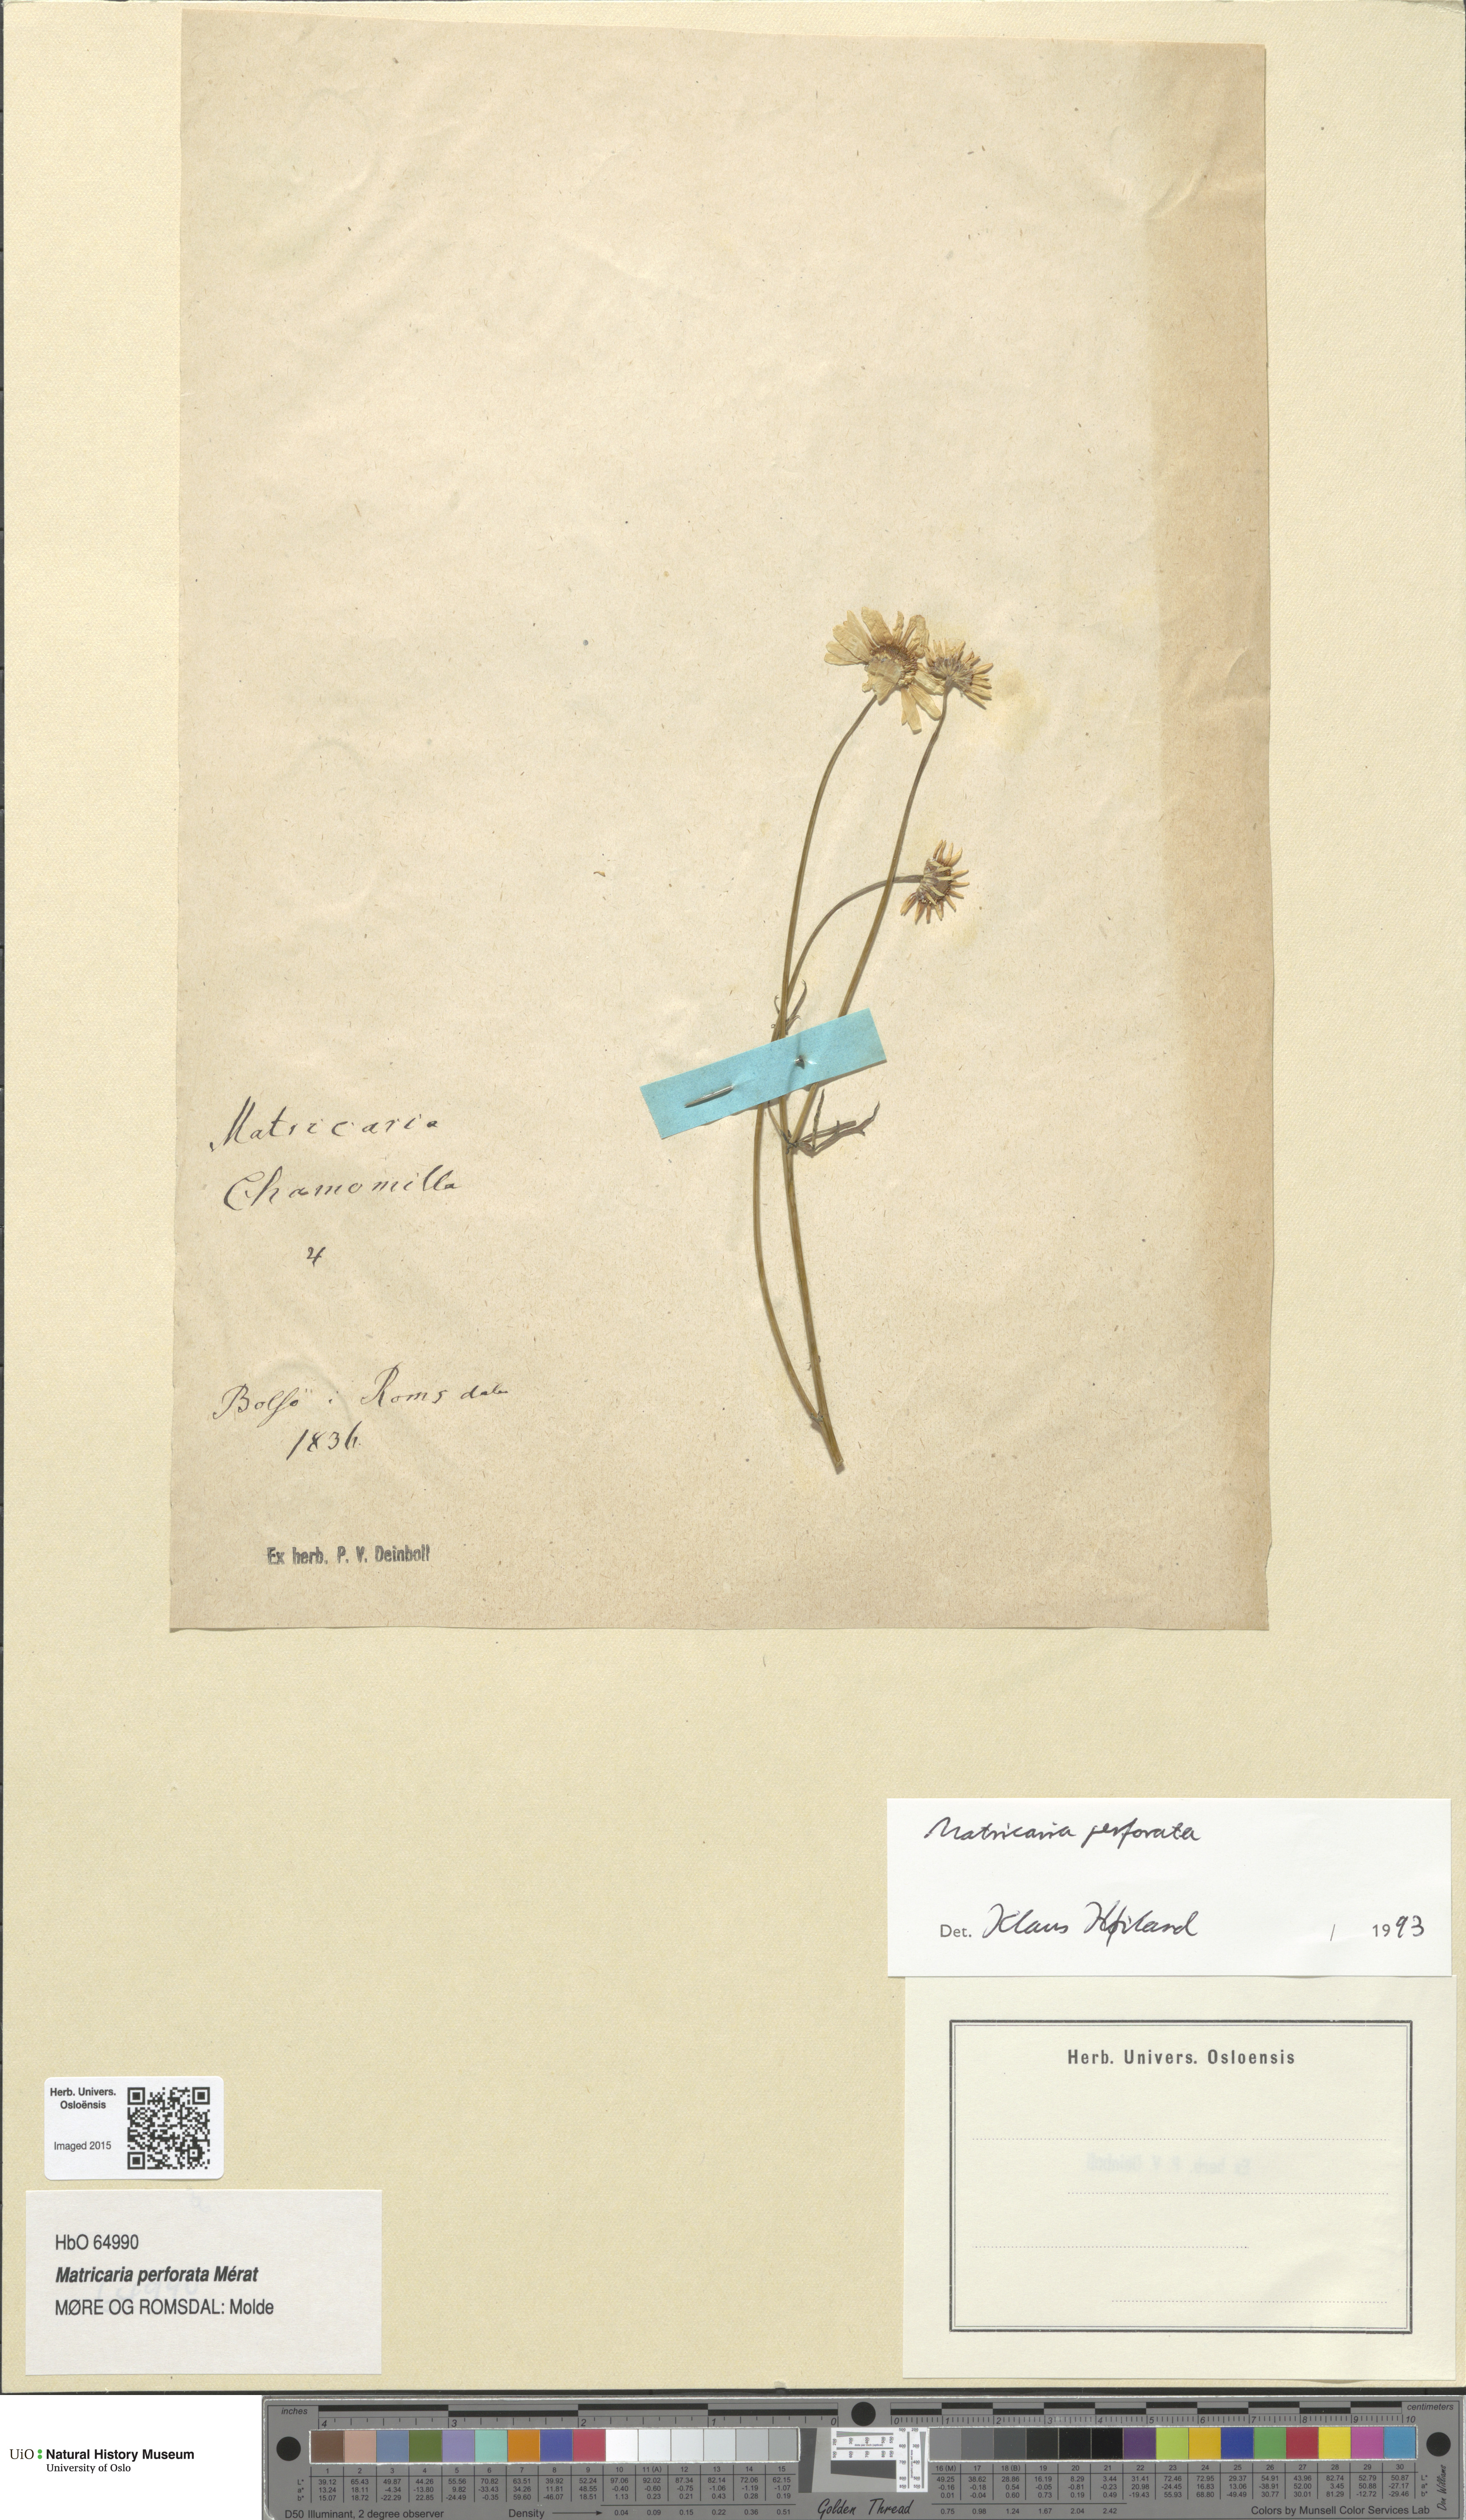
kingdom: Plantae
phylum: Tracheophyta
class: Magnoliopsida
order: Asterales
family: Asteraceae
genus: Tripleurospermum
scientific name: Tripleurospermum inodorum
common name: Scentless mayweed
